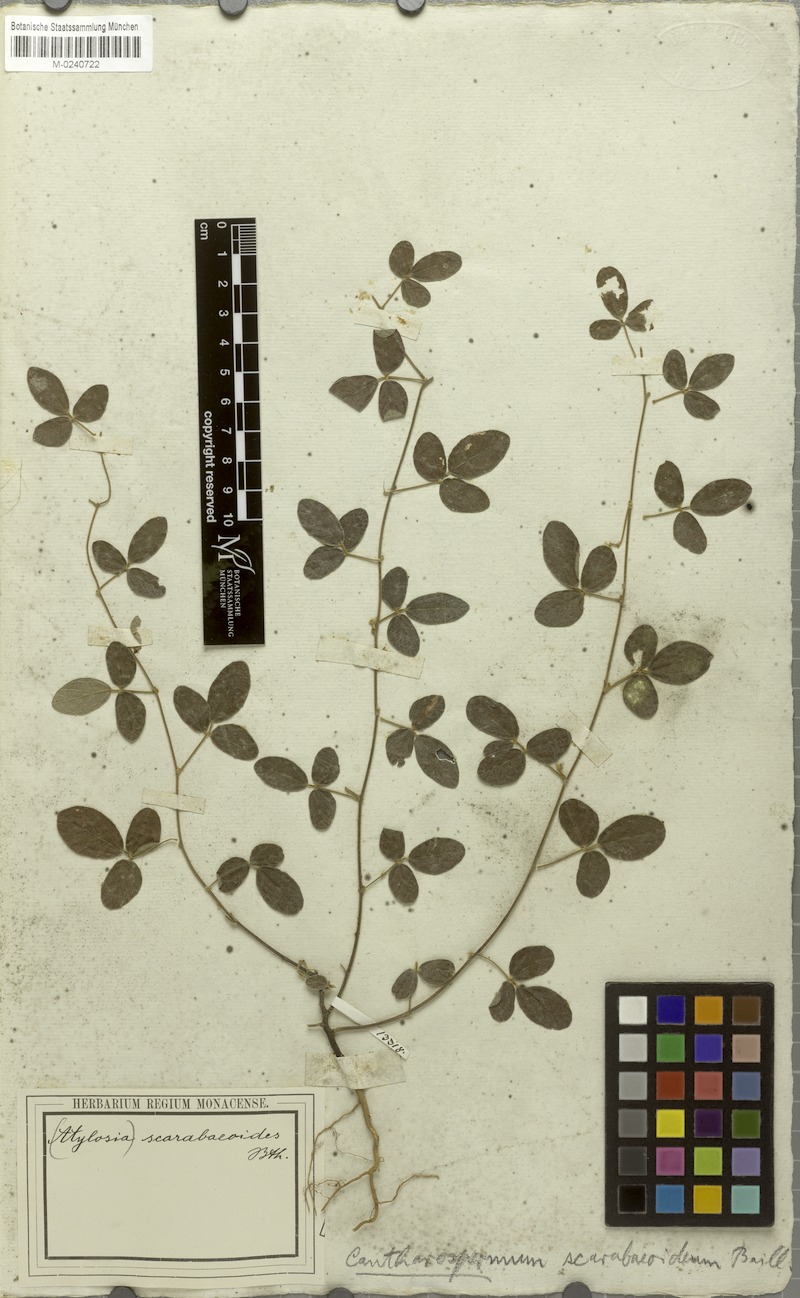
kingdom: Plantae
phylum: Tracheophyta
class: Magnoliopsida
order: Fabales
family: Fabaceae
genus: Cajanus
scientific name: Cajanus scarabaeoides
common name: Showy pigeonpea
